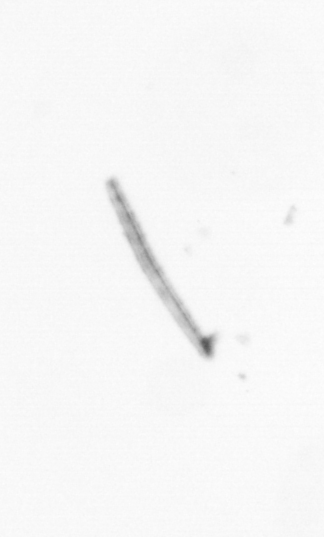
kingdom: Chromista
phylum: Ochrophyta
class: Bacillariophyceae
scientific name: Bacillariophyceae
